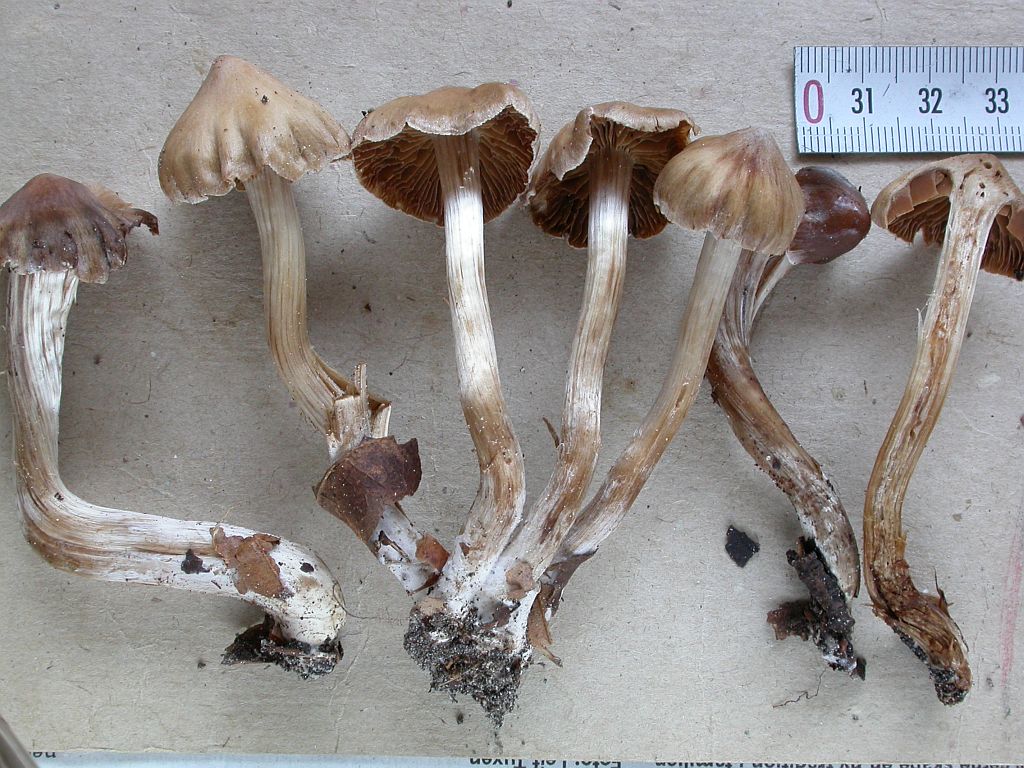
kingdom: Fungi
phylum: Basidiomycota
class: Agaricomycetes
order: Agaricales
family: Cortinariaceae
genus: Cortinarius
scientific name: Cortinarius exitiosus
